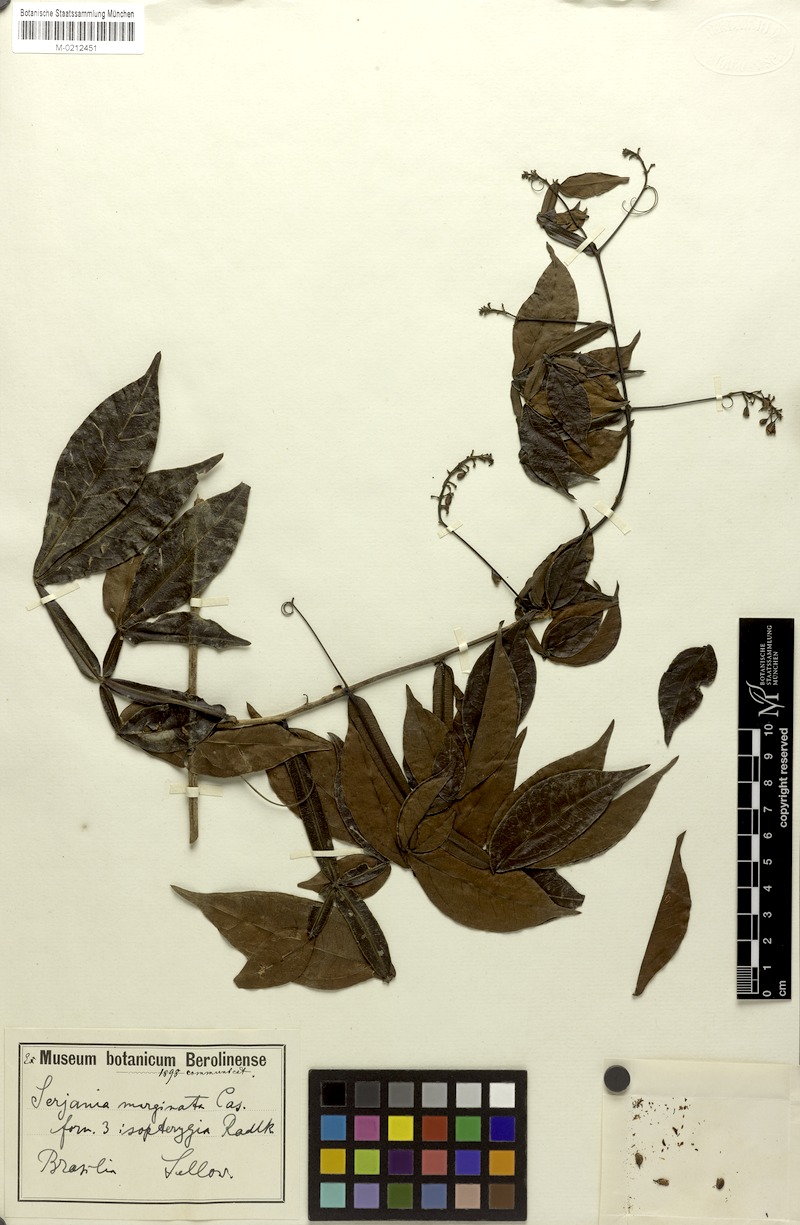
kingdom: Plantae
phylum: Tracheophyta
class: Magnoliopsida
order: Sapindales
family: Sapindaceae
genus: Serjania
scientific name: Serjania marginata
